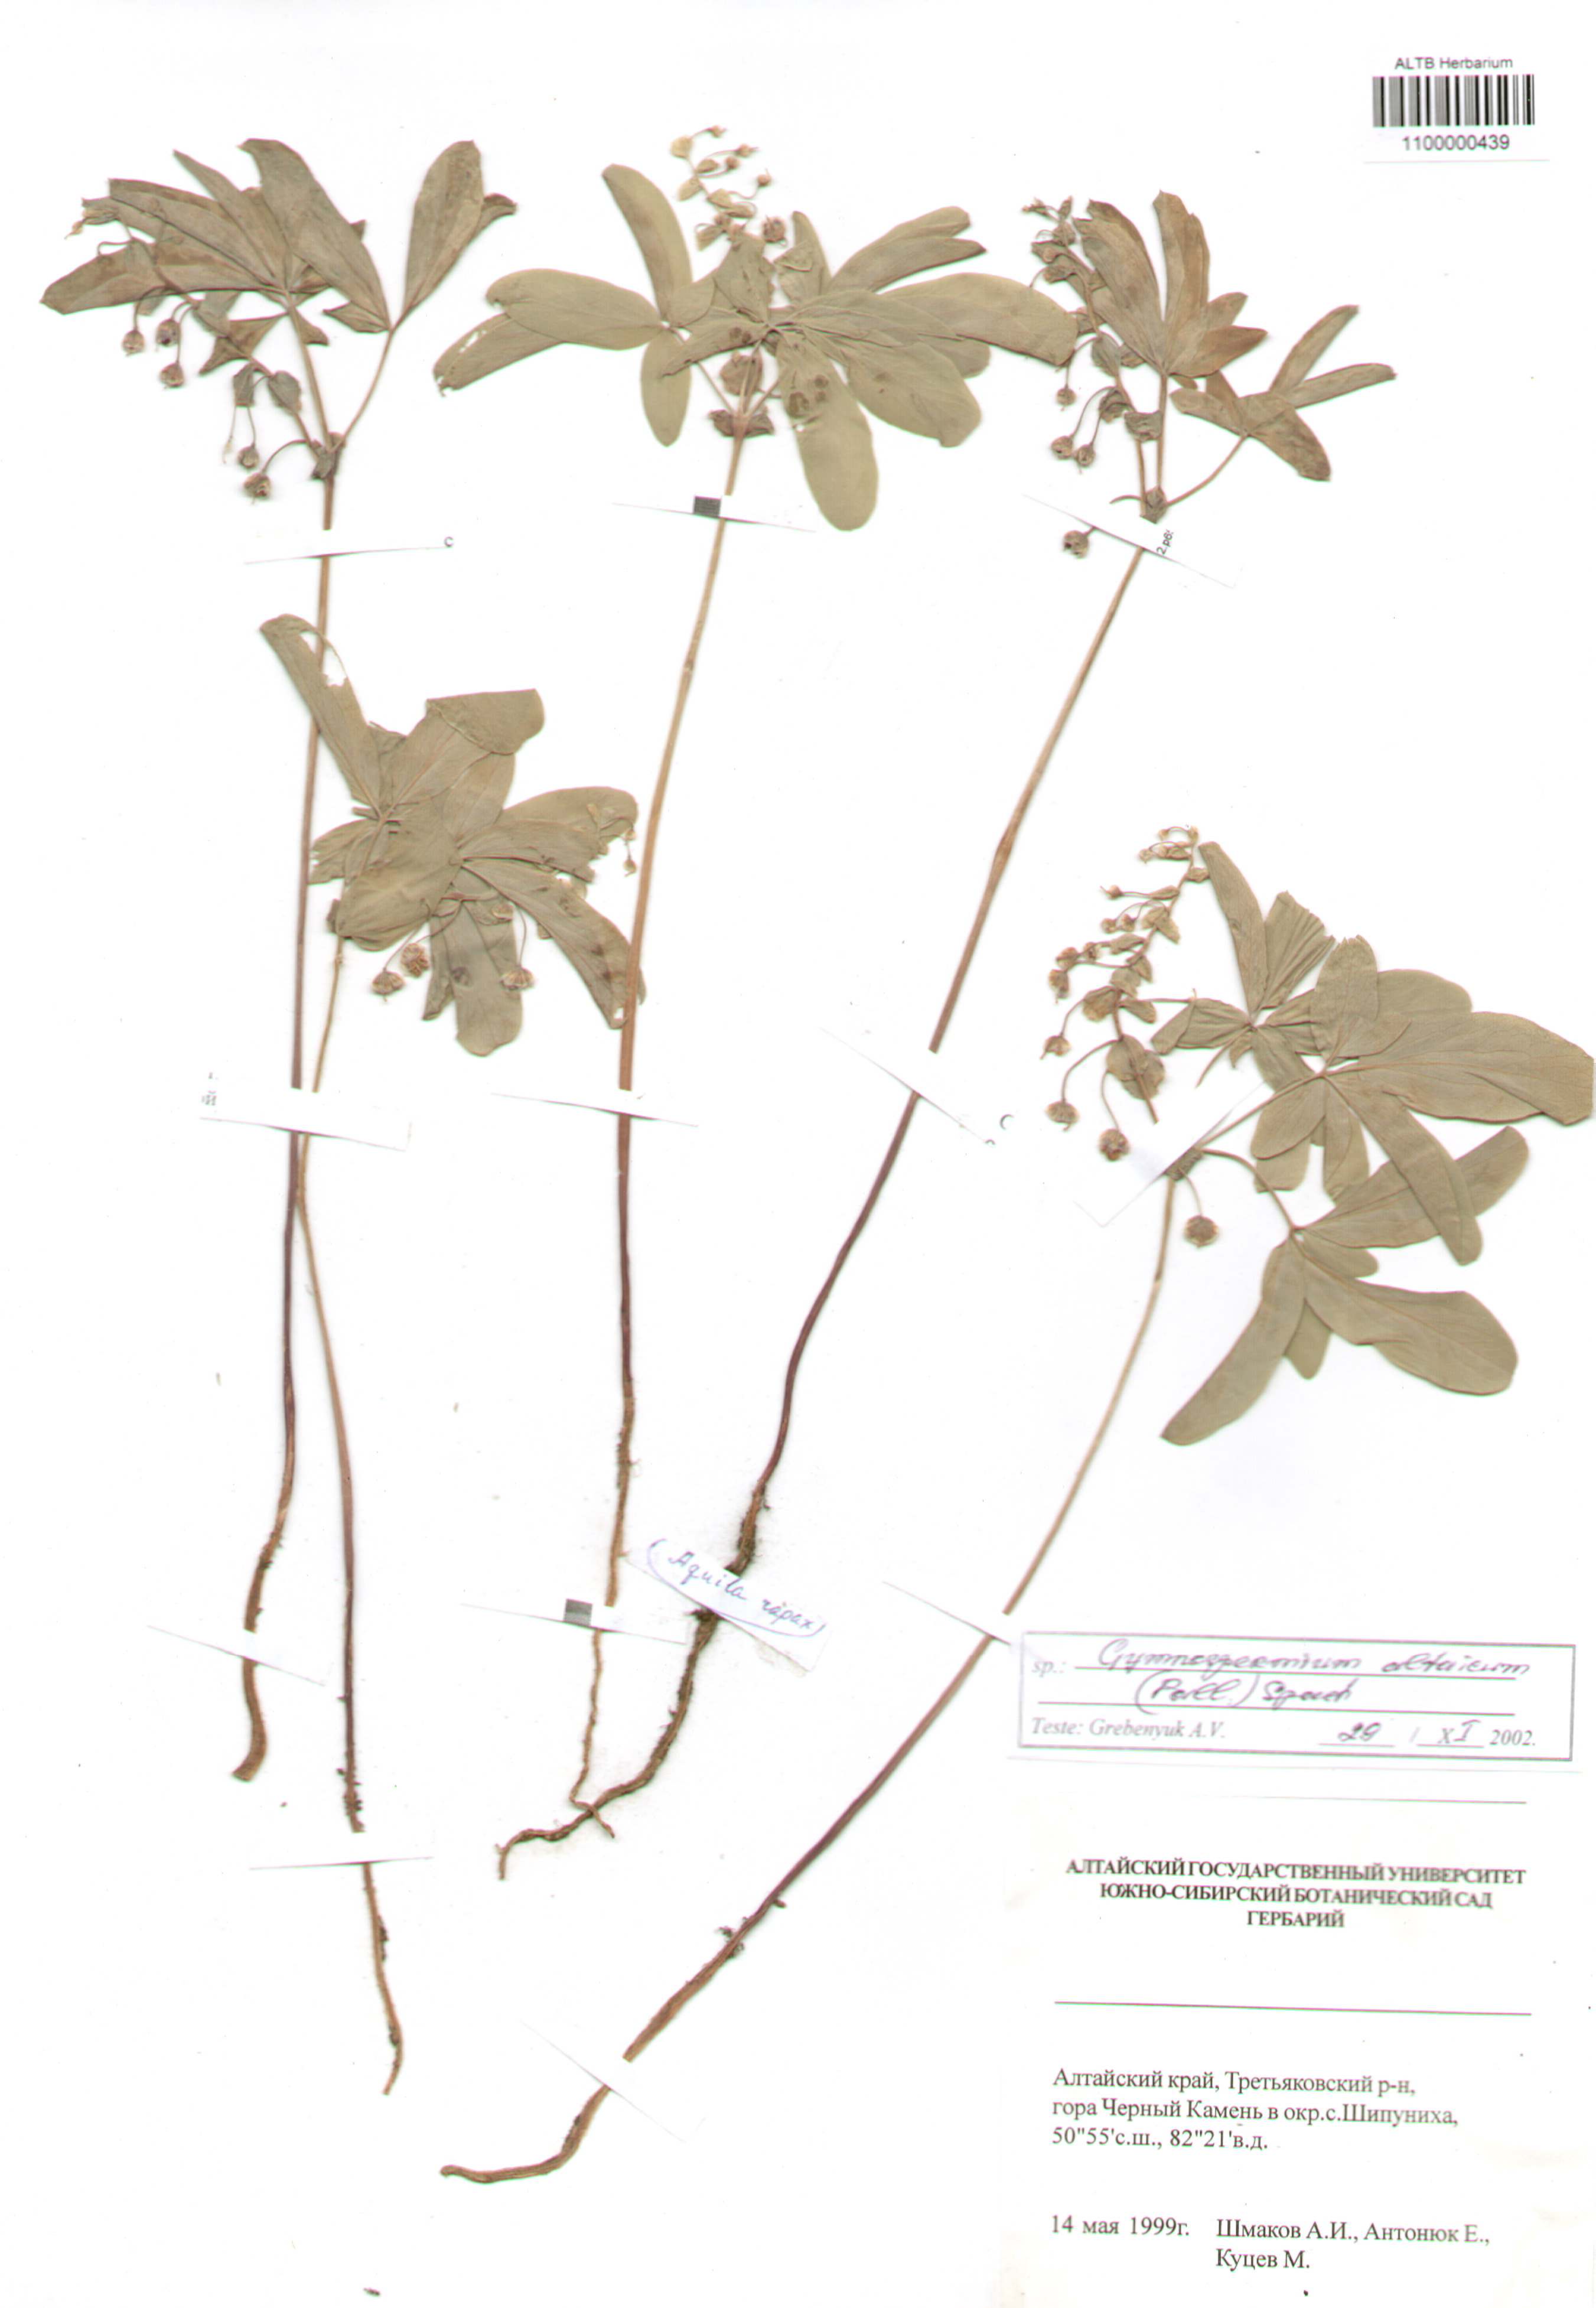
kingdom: Plantae
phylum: Tracheophyta
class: Magnoliopsida
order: Ranunculales
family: Berberidaceae
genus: Gymnospermium
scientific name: Gymnospermium altaicum
